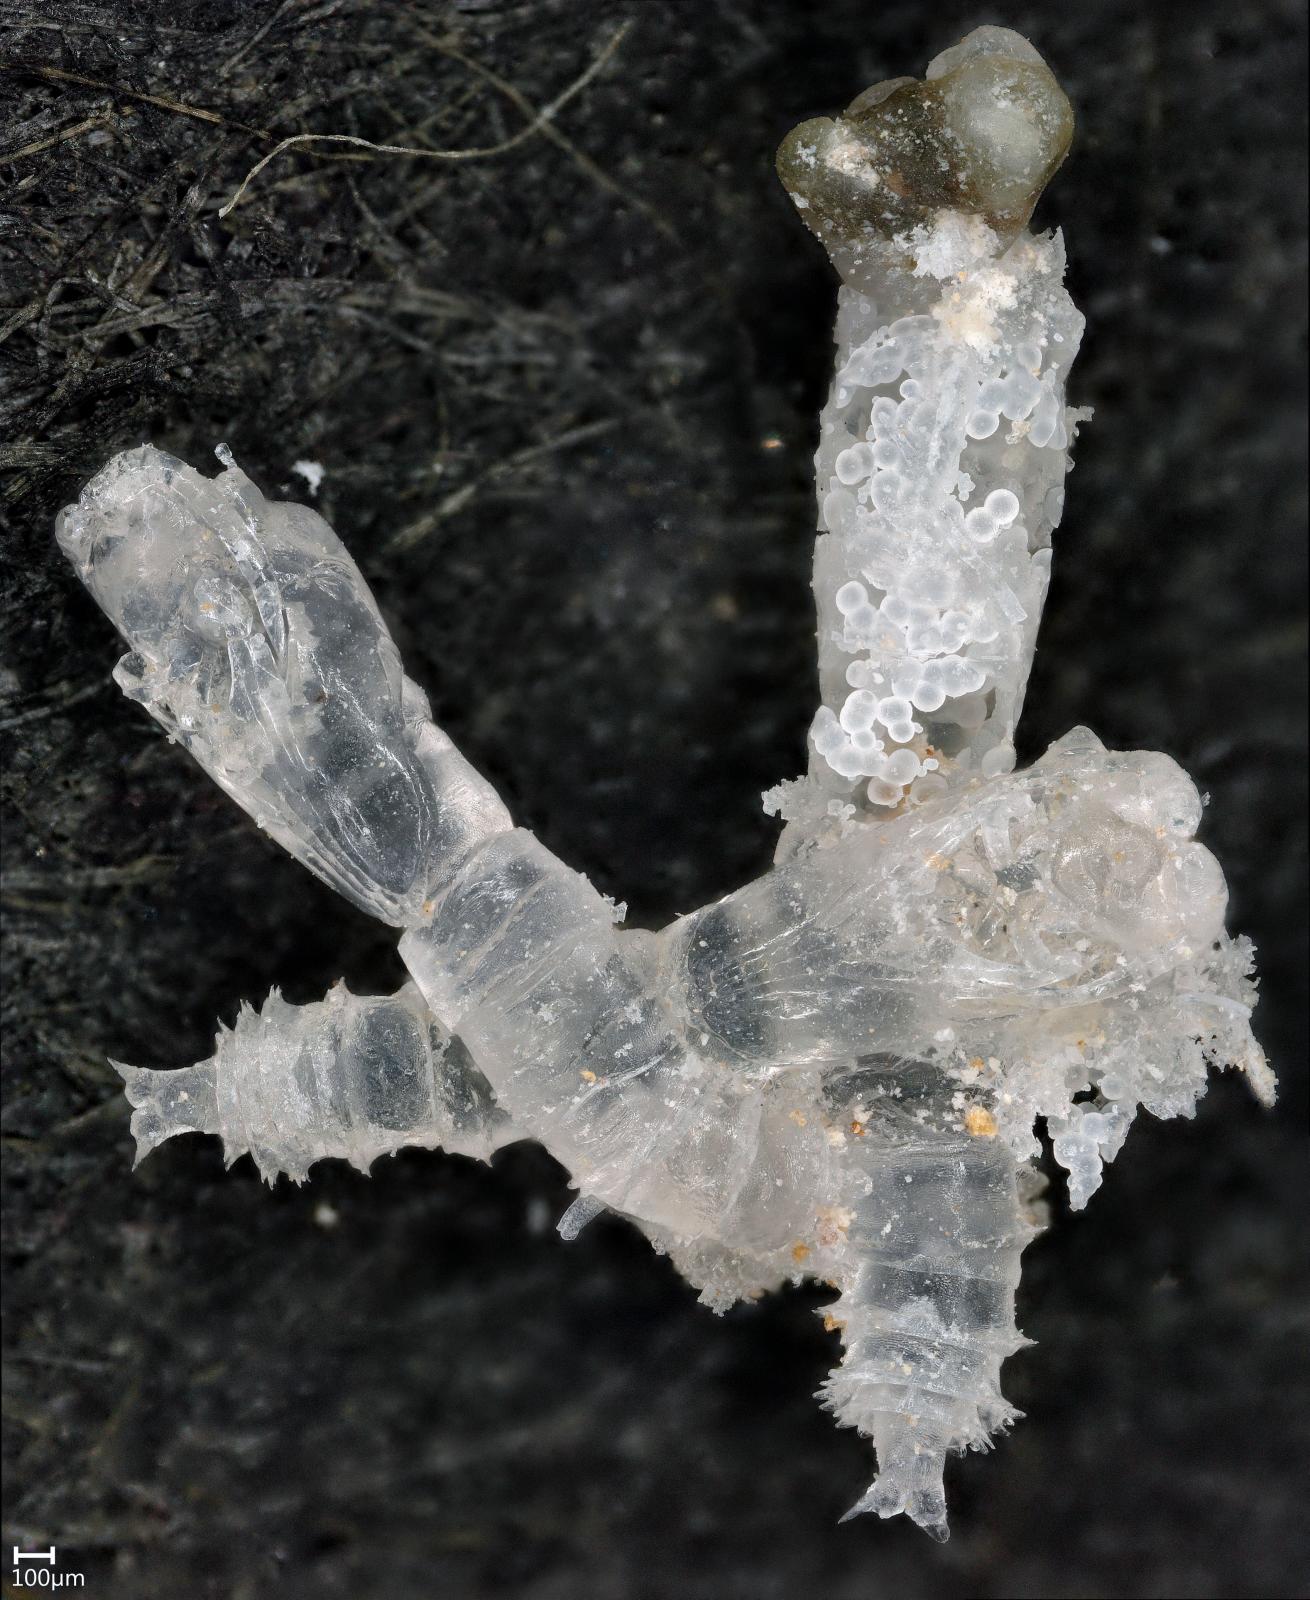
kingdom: Animalia
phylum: Arthropoda
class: Insecta
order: Diptera
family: Ceratopogonidae
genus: Dasyhelea
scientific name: Dasyhelea australia
